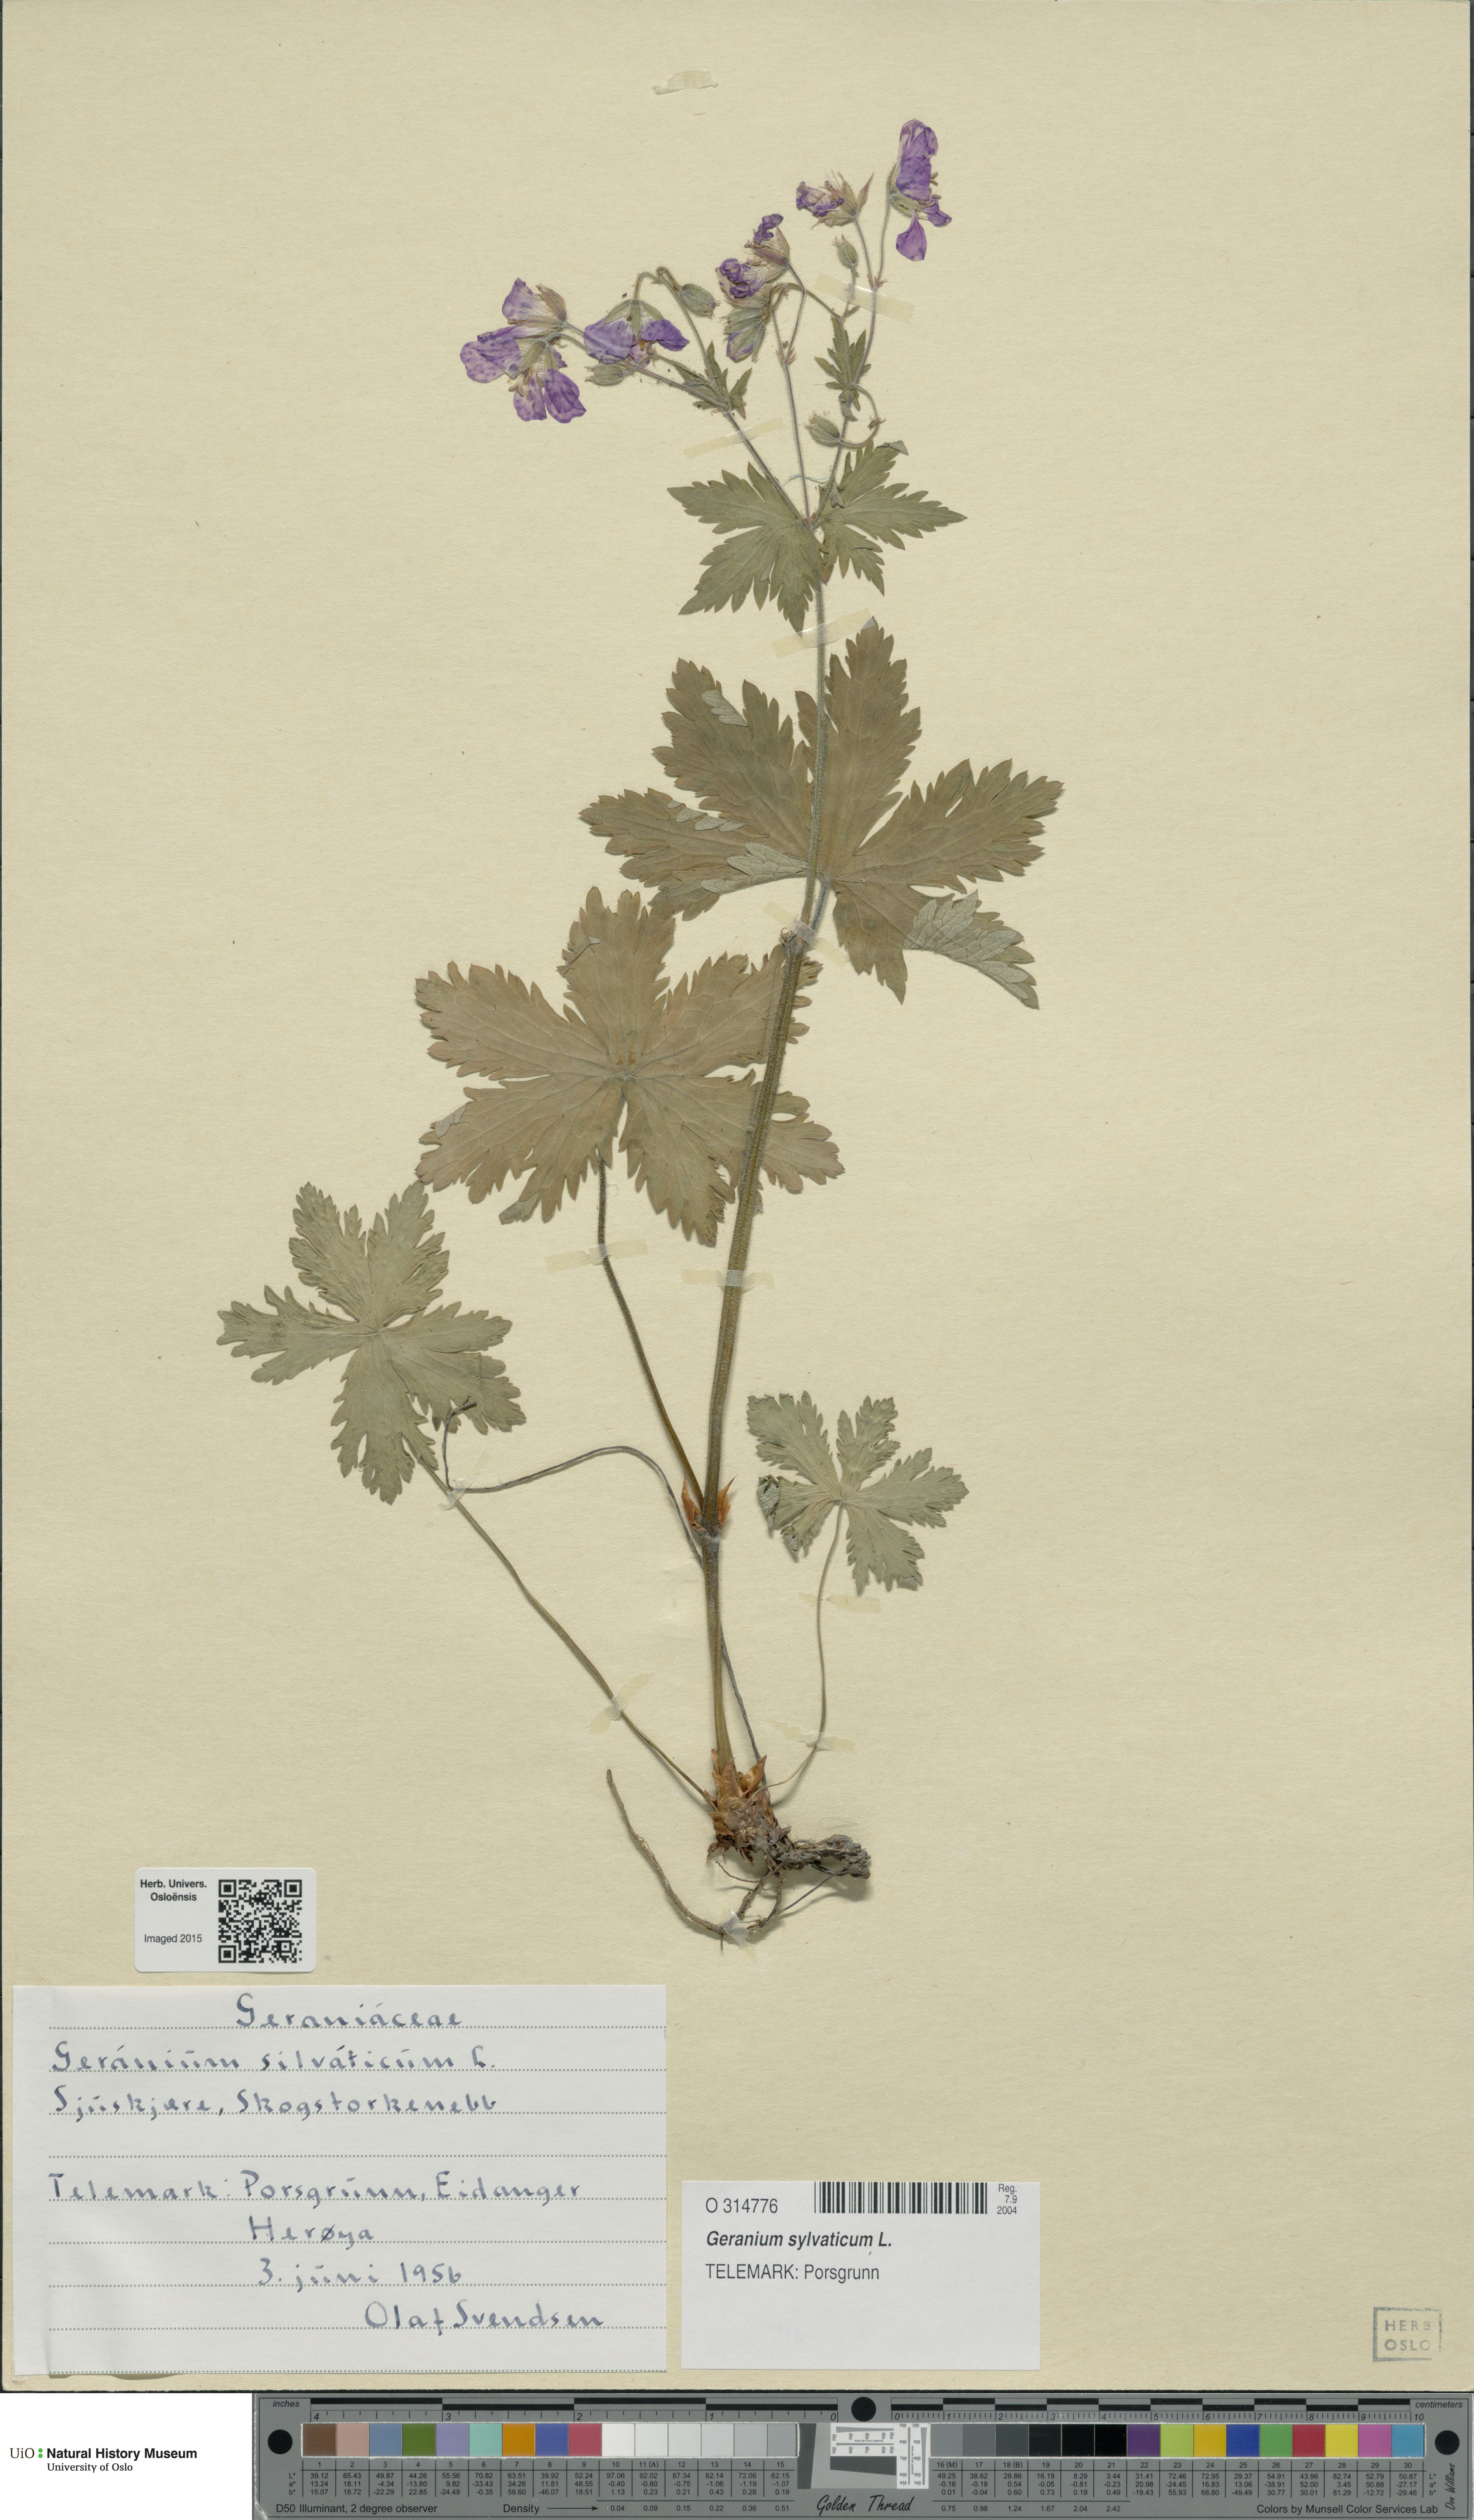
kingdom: Plantae
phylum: Tracheophyta
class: Magnoliopsida
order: Geraniales
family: Geraniaceae
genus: Geranium
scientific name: Geranium sylvaticum
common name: Wood crane's-bill
